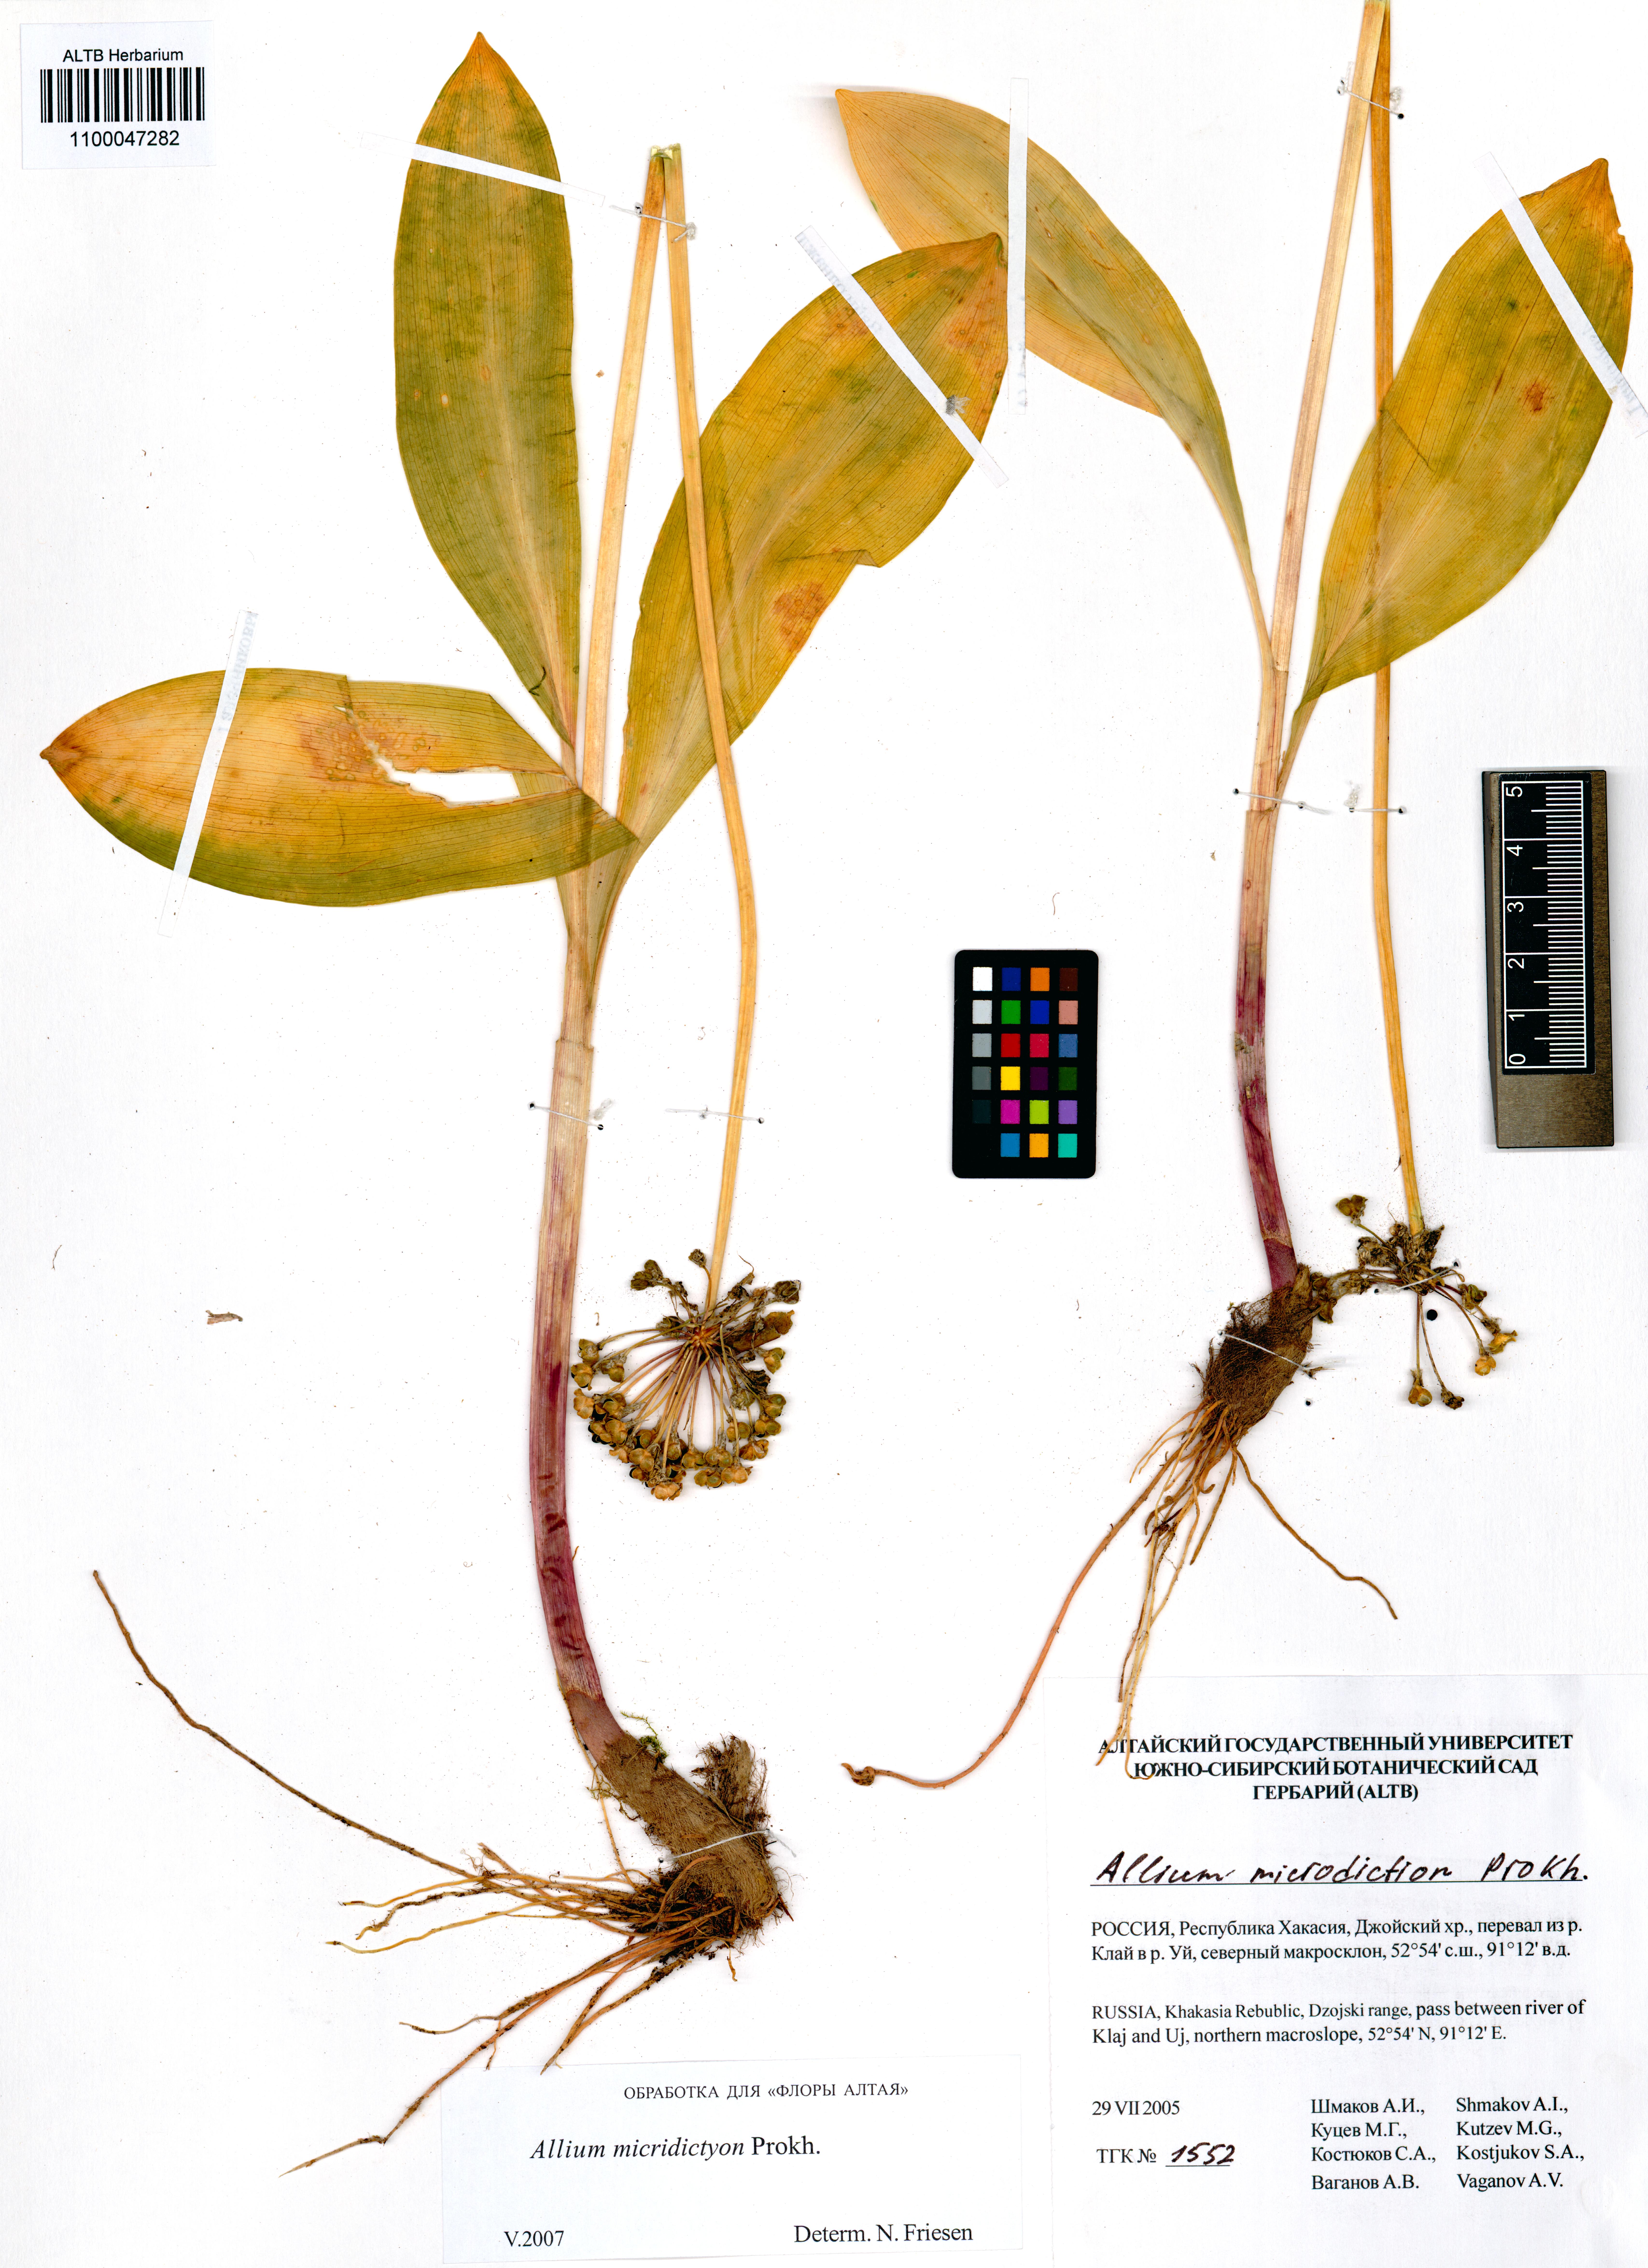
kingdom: Plantae
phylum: Tracheophyta
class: Liliopsida
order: Asparagales
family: Amaryllidaceae
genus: Allium
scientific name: Allium microdictyon
